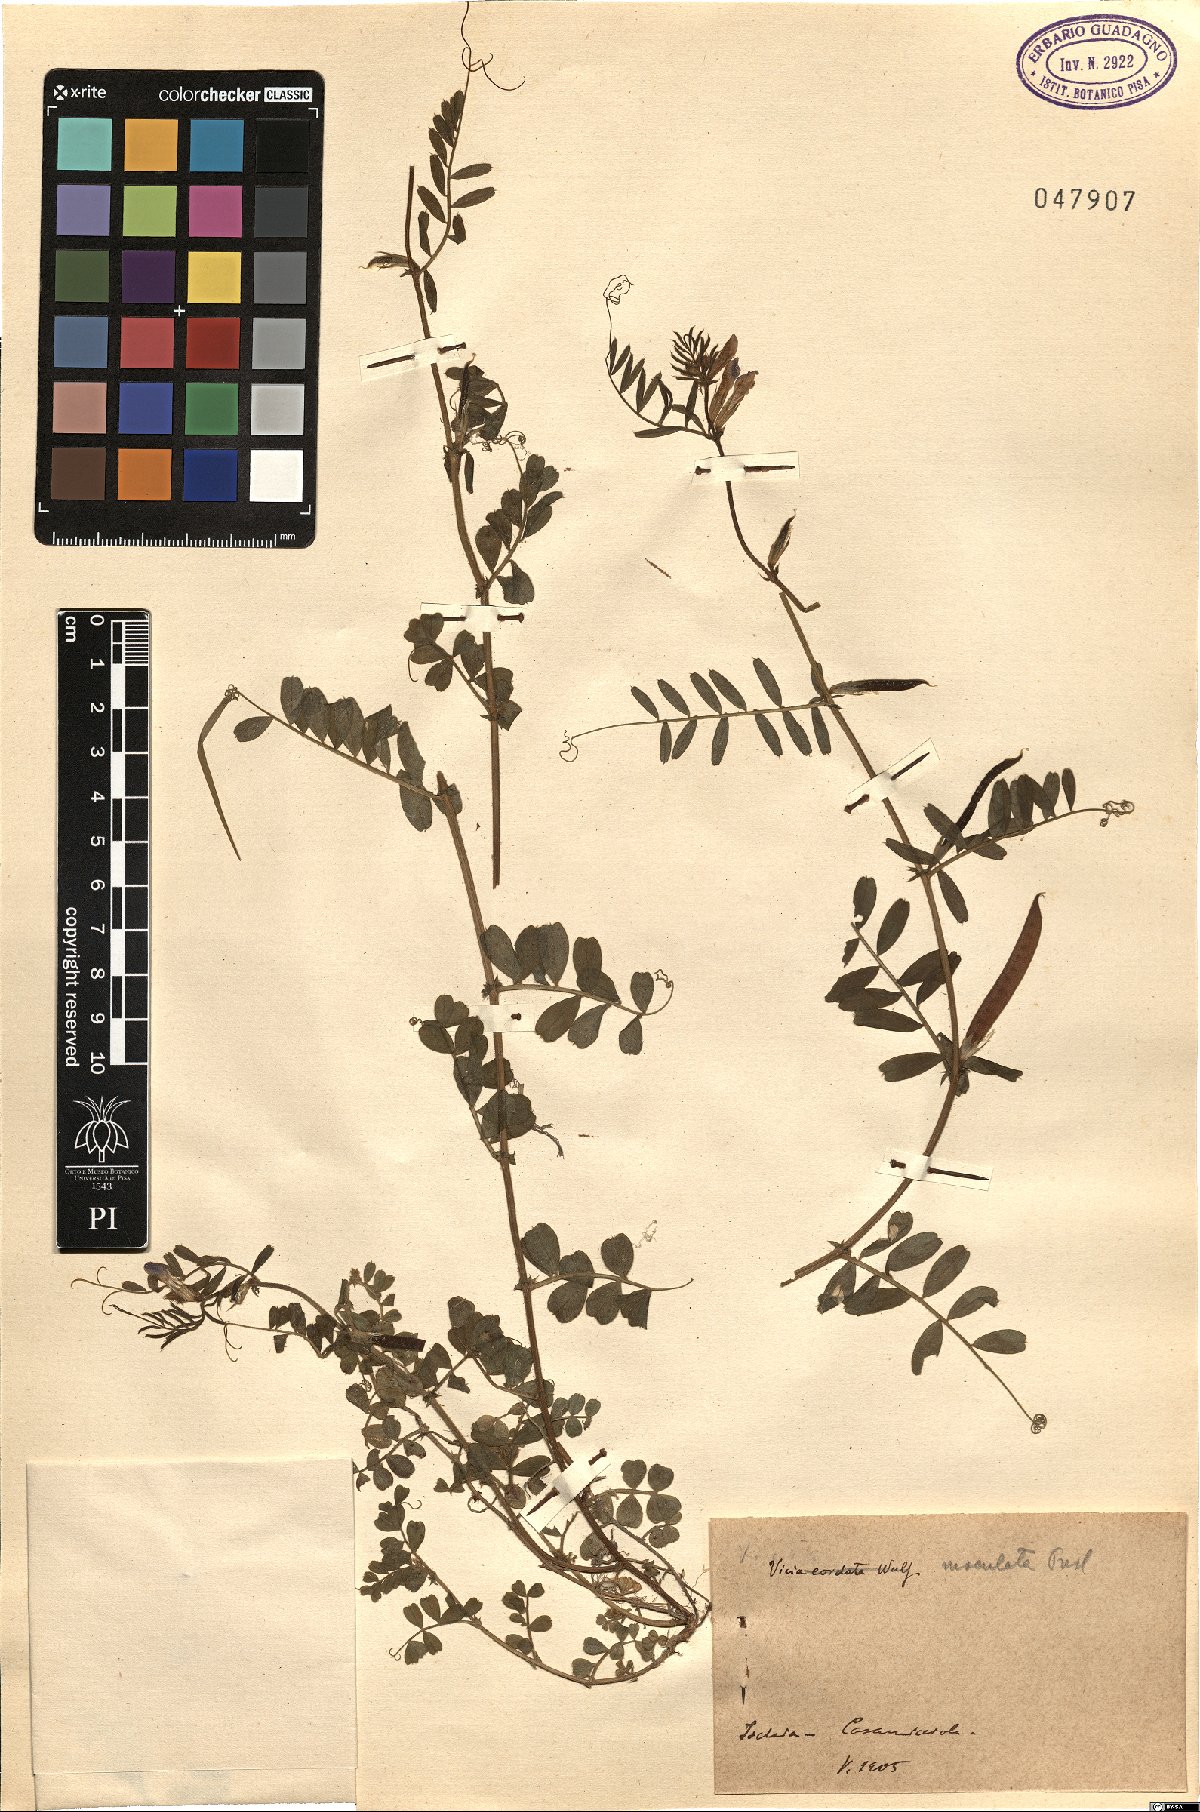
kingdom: Plantae
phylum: Tracheophyta
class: Magnoliopsida
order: Fabales
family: Fabaceae
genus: Vicia
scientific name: Vicia sativa
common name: Garden vetch
